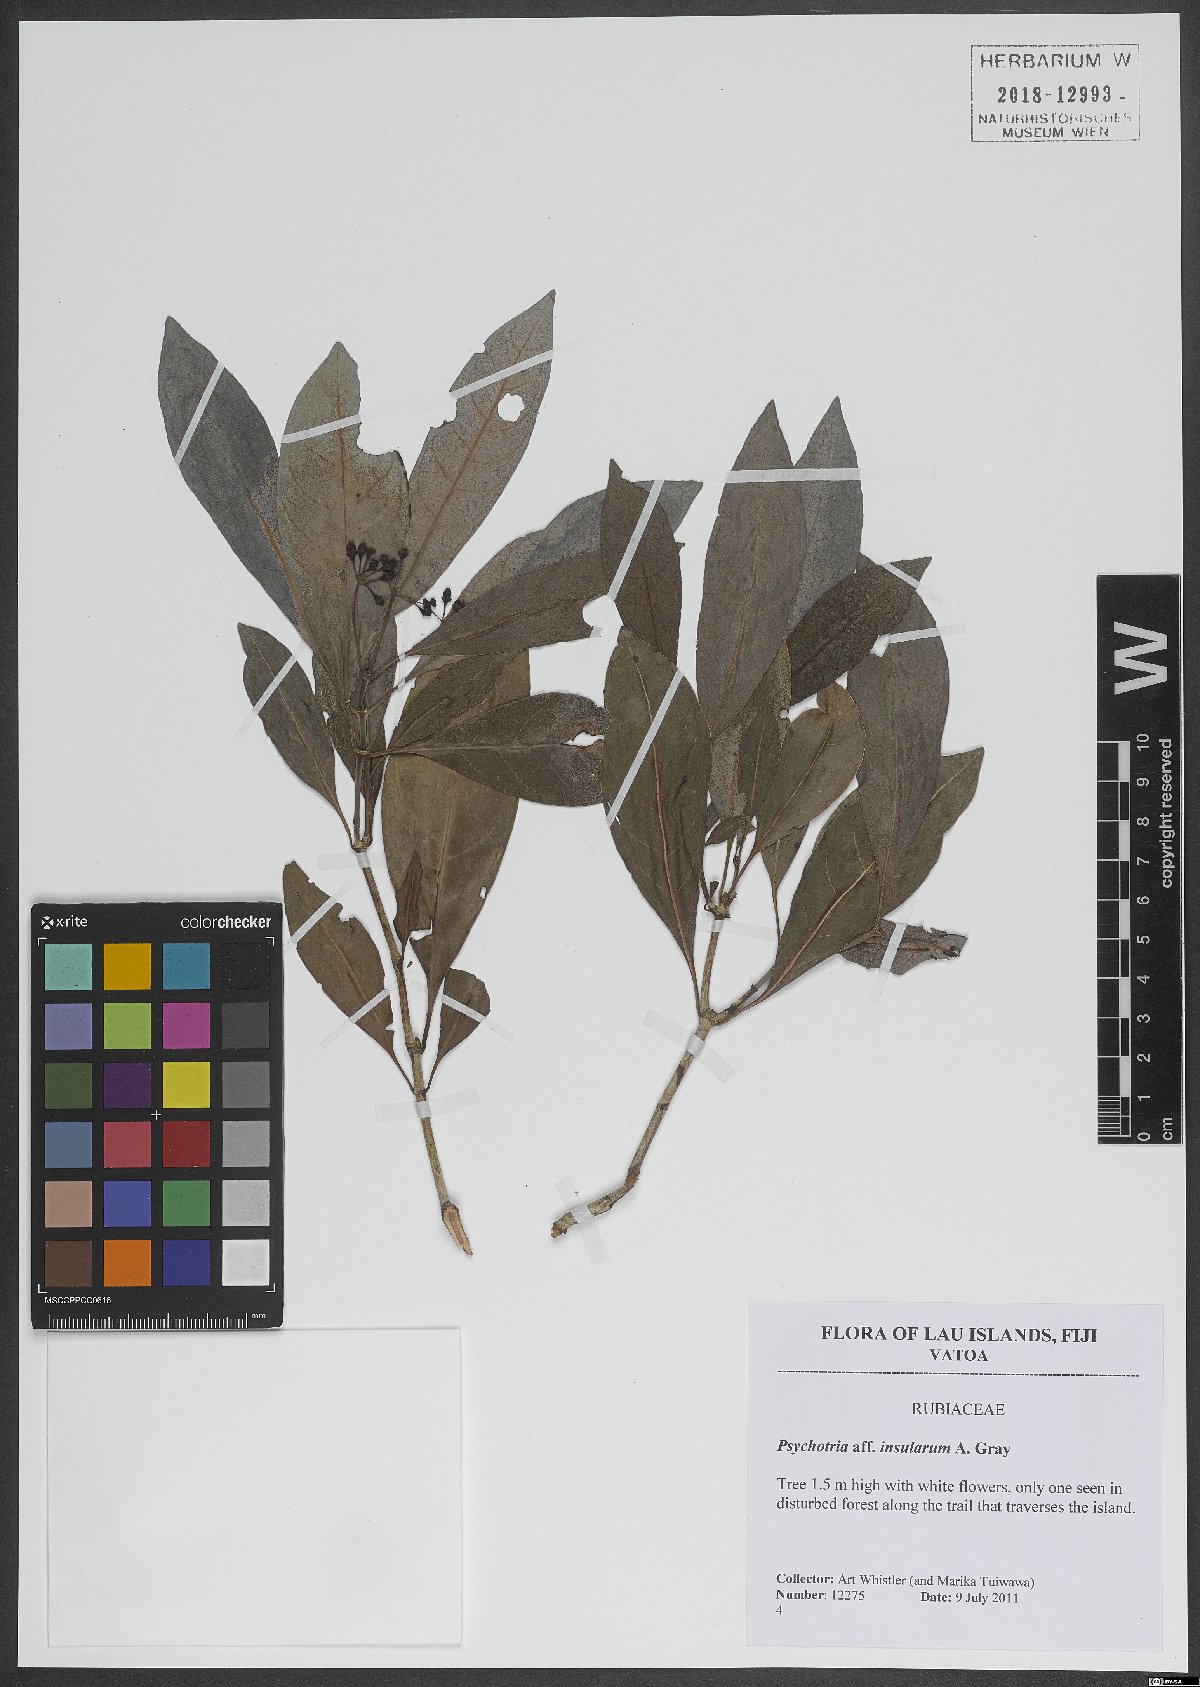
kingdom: Plantae
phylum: Tracheophyta
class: Magnoliopsida
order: Gentianales
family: Rubiaceae
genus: Psychotria
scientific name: Psychotria
